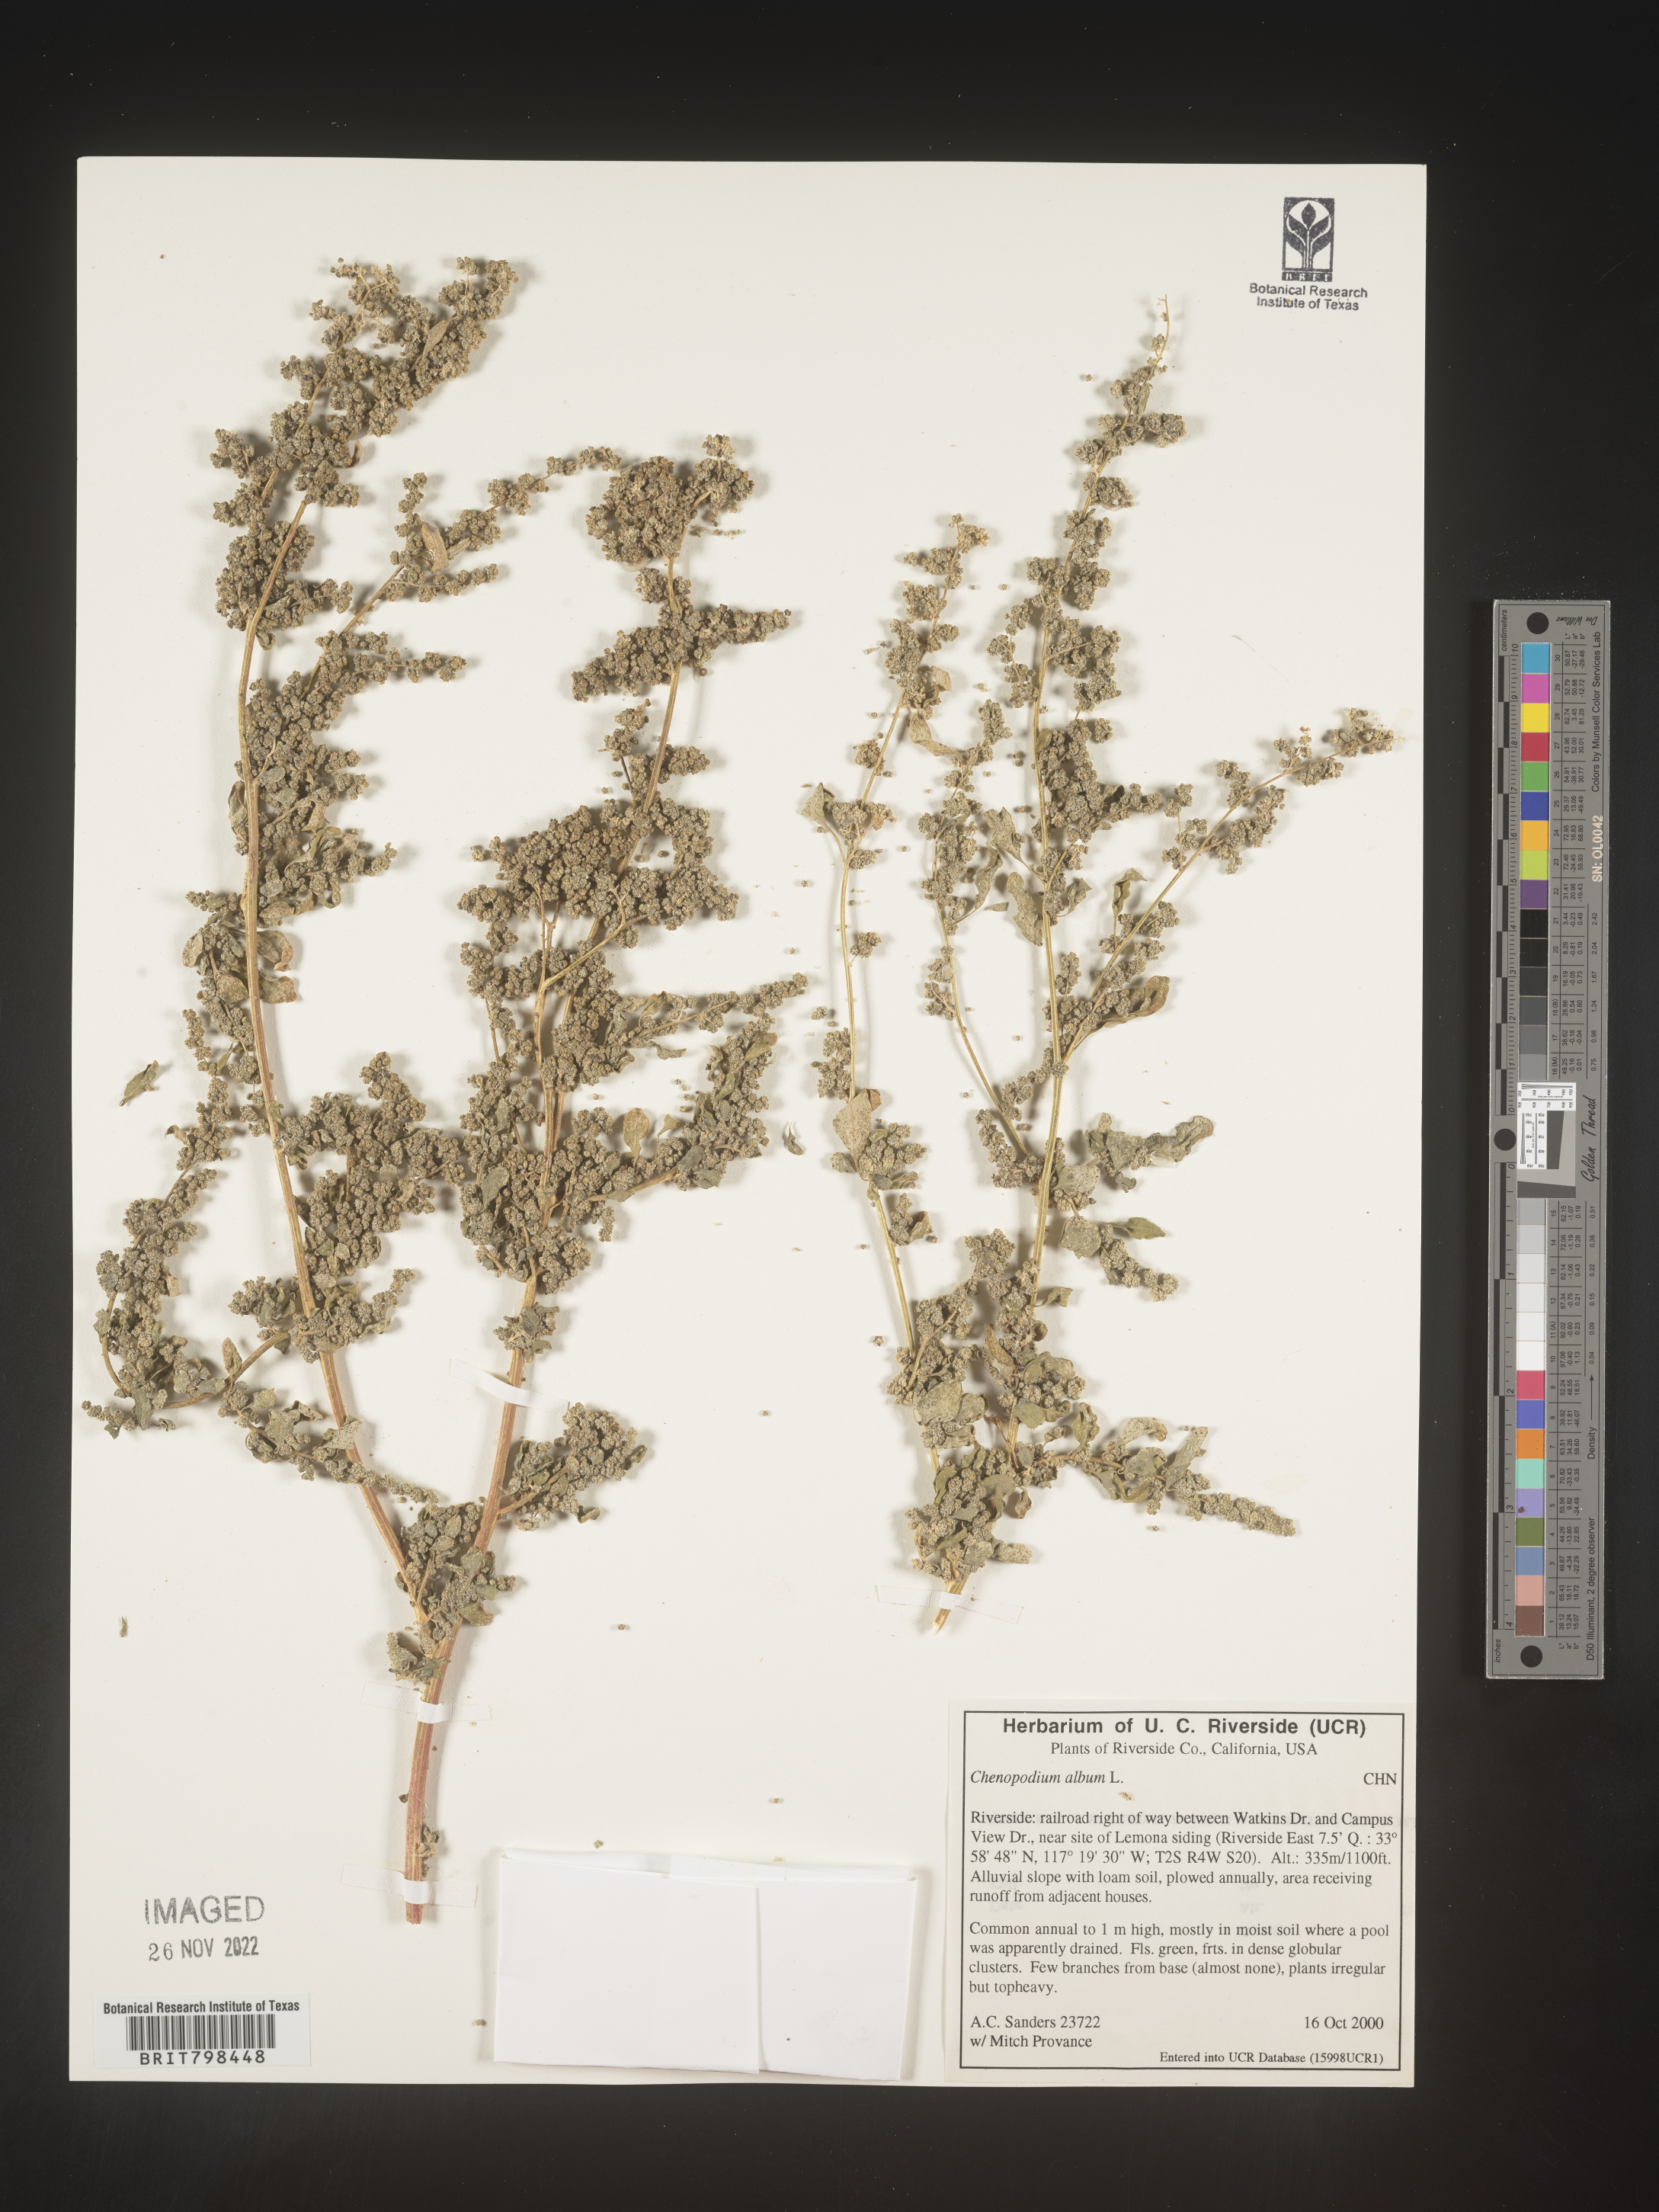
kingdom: Plantae
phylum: Tracheophyta
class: Magnoliopsida
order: Caryophyllales
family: Amaranthaceae
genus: Chenopodium
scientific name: Chenopodium album
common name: Fat-hen
